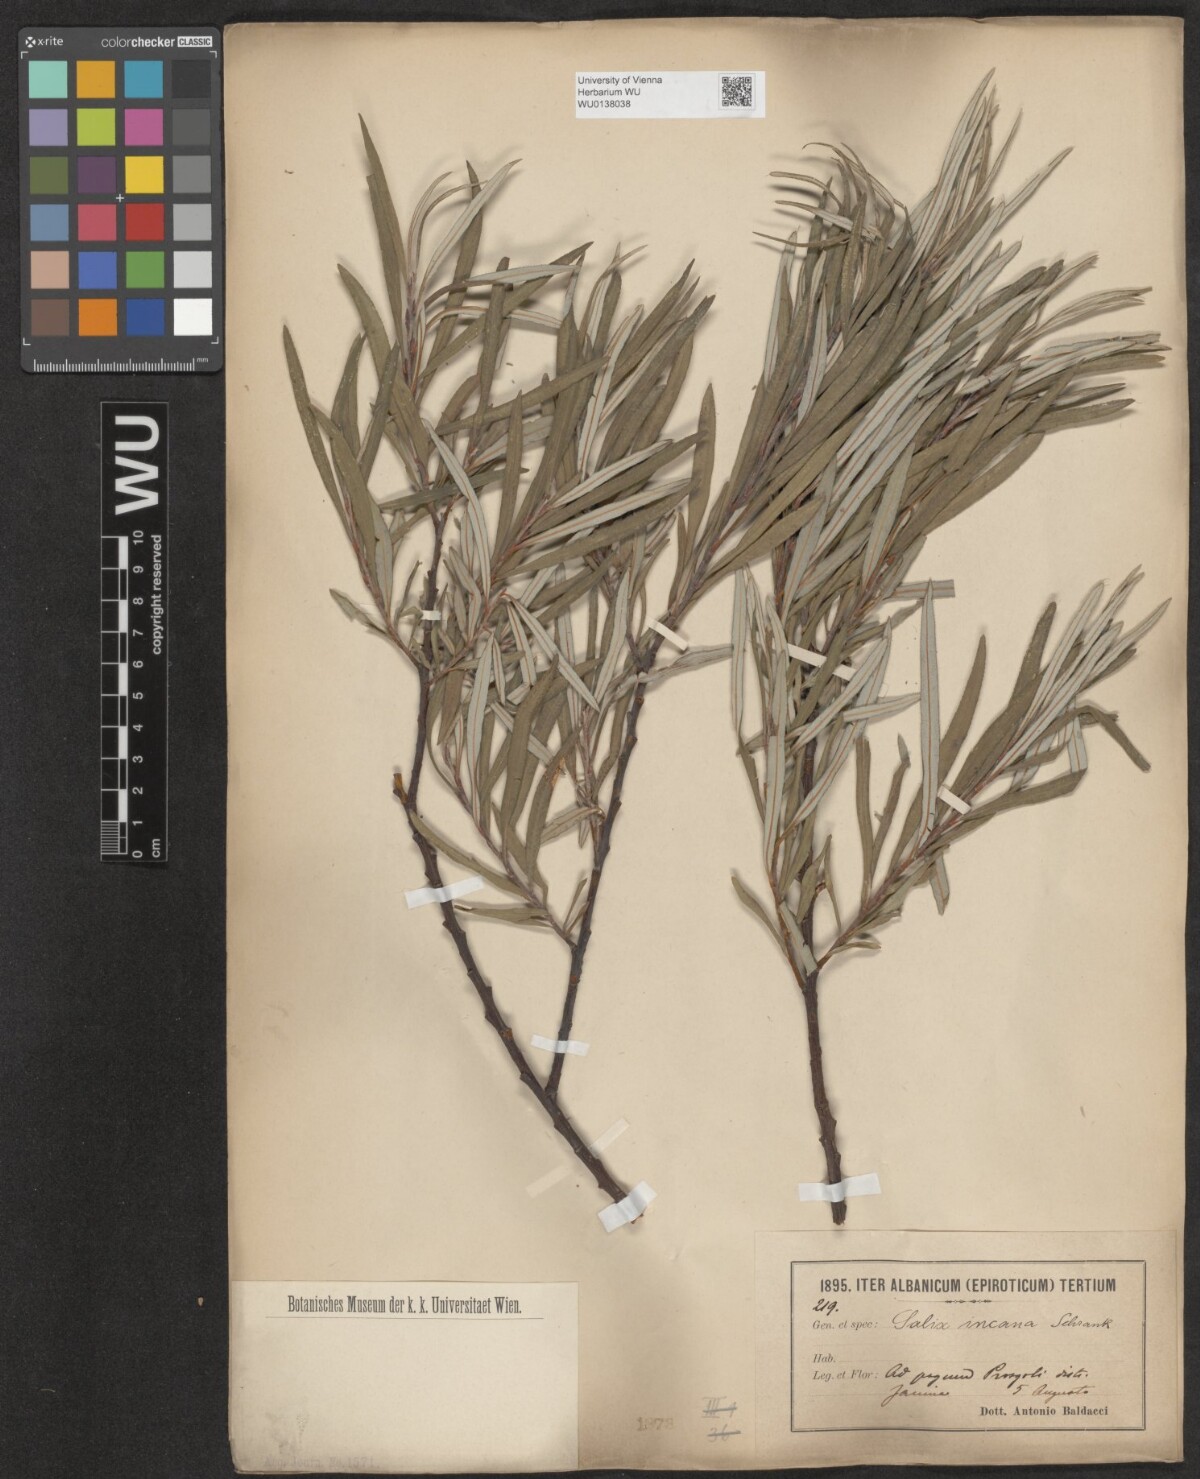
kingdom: Plantae
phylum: Tracheophyta
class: Magnoliopsida
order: Malpighiales
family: Salicaceae
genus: Salix
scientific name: Salix eleagnos
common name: Elaeagnus willow
